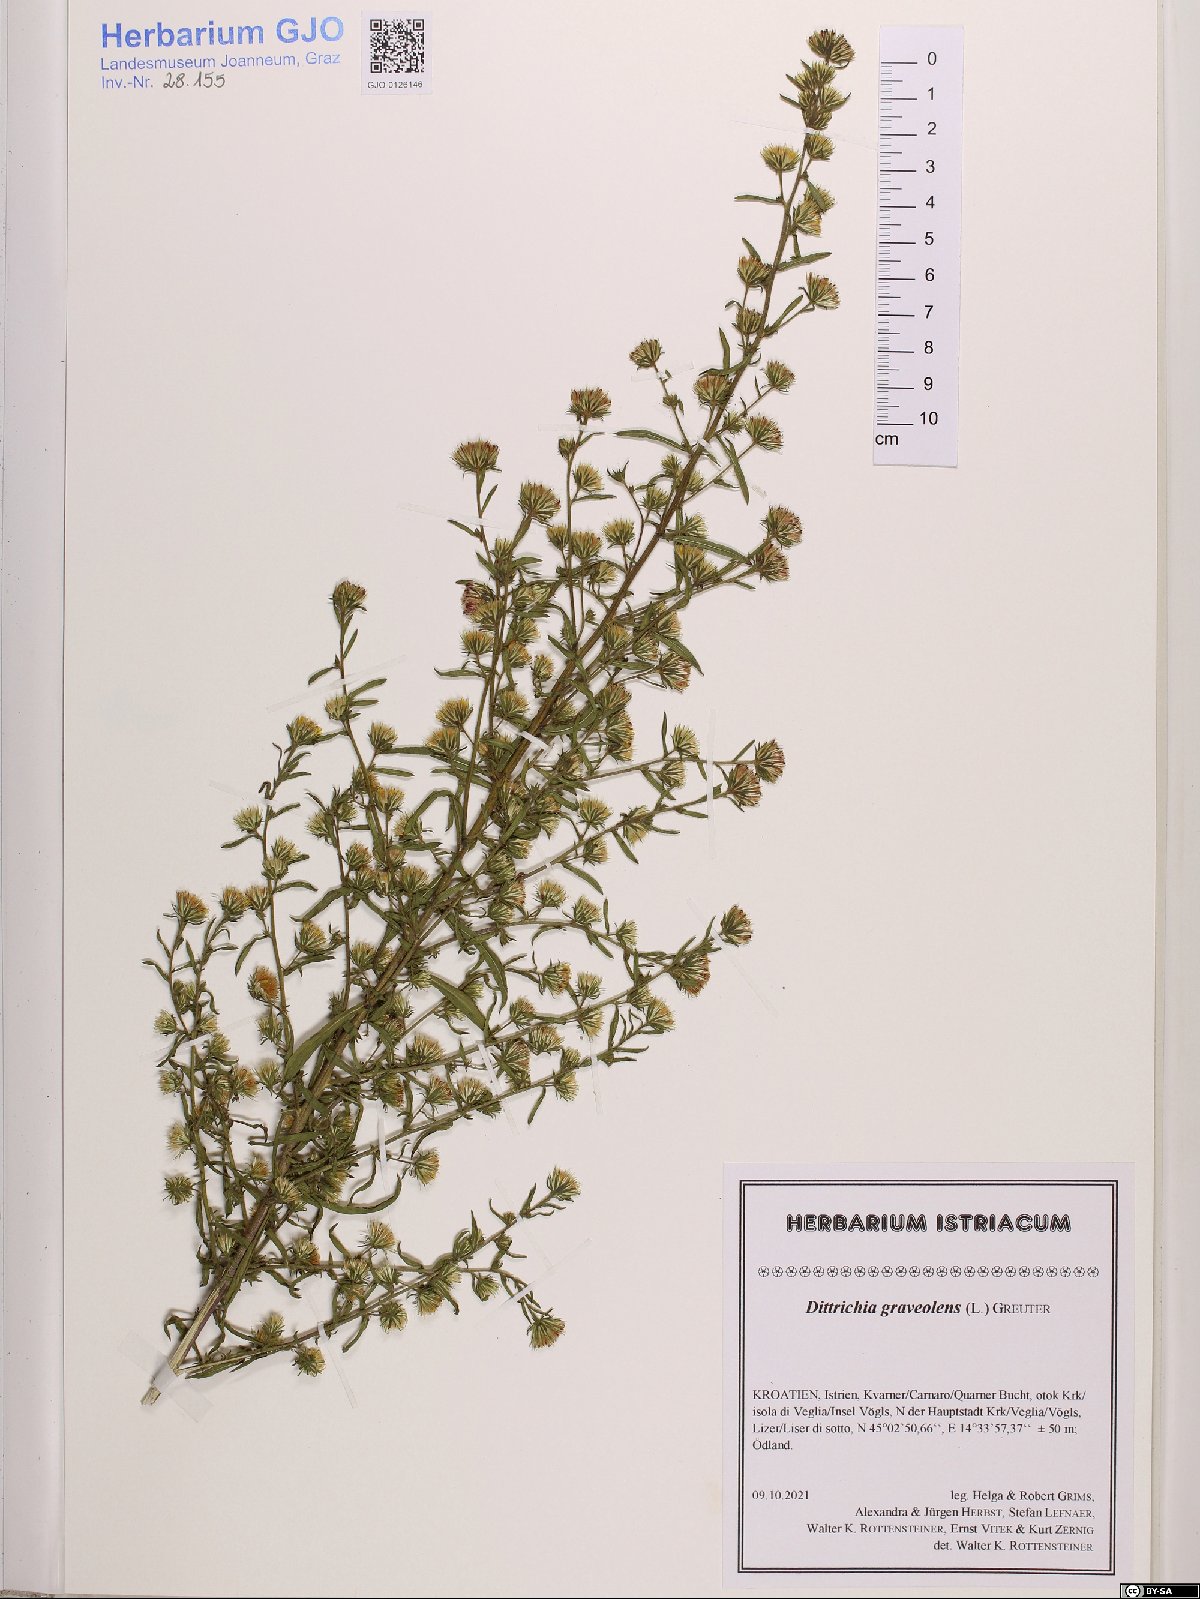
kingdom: Plantae
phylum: Tracheophyta
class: Magnoliopsida
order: Asterales
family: Asteraceae
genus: Dittrichia
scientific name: Dittrichia graveolens
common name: Stinking fleabane
